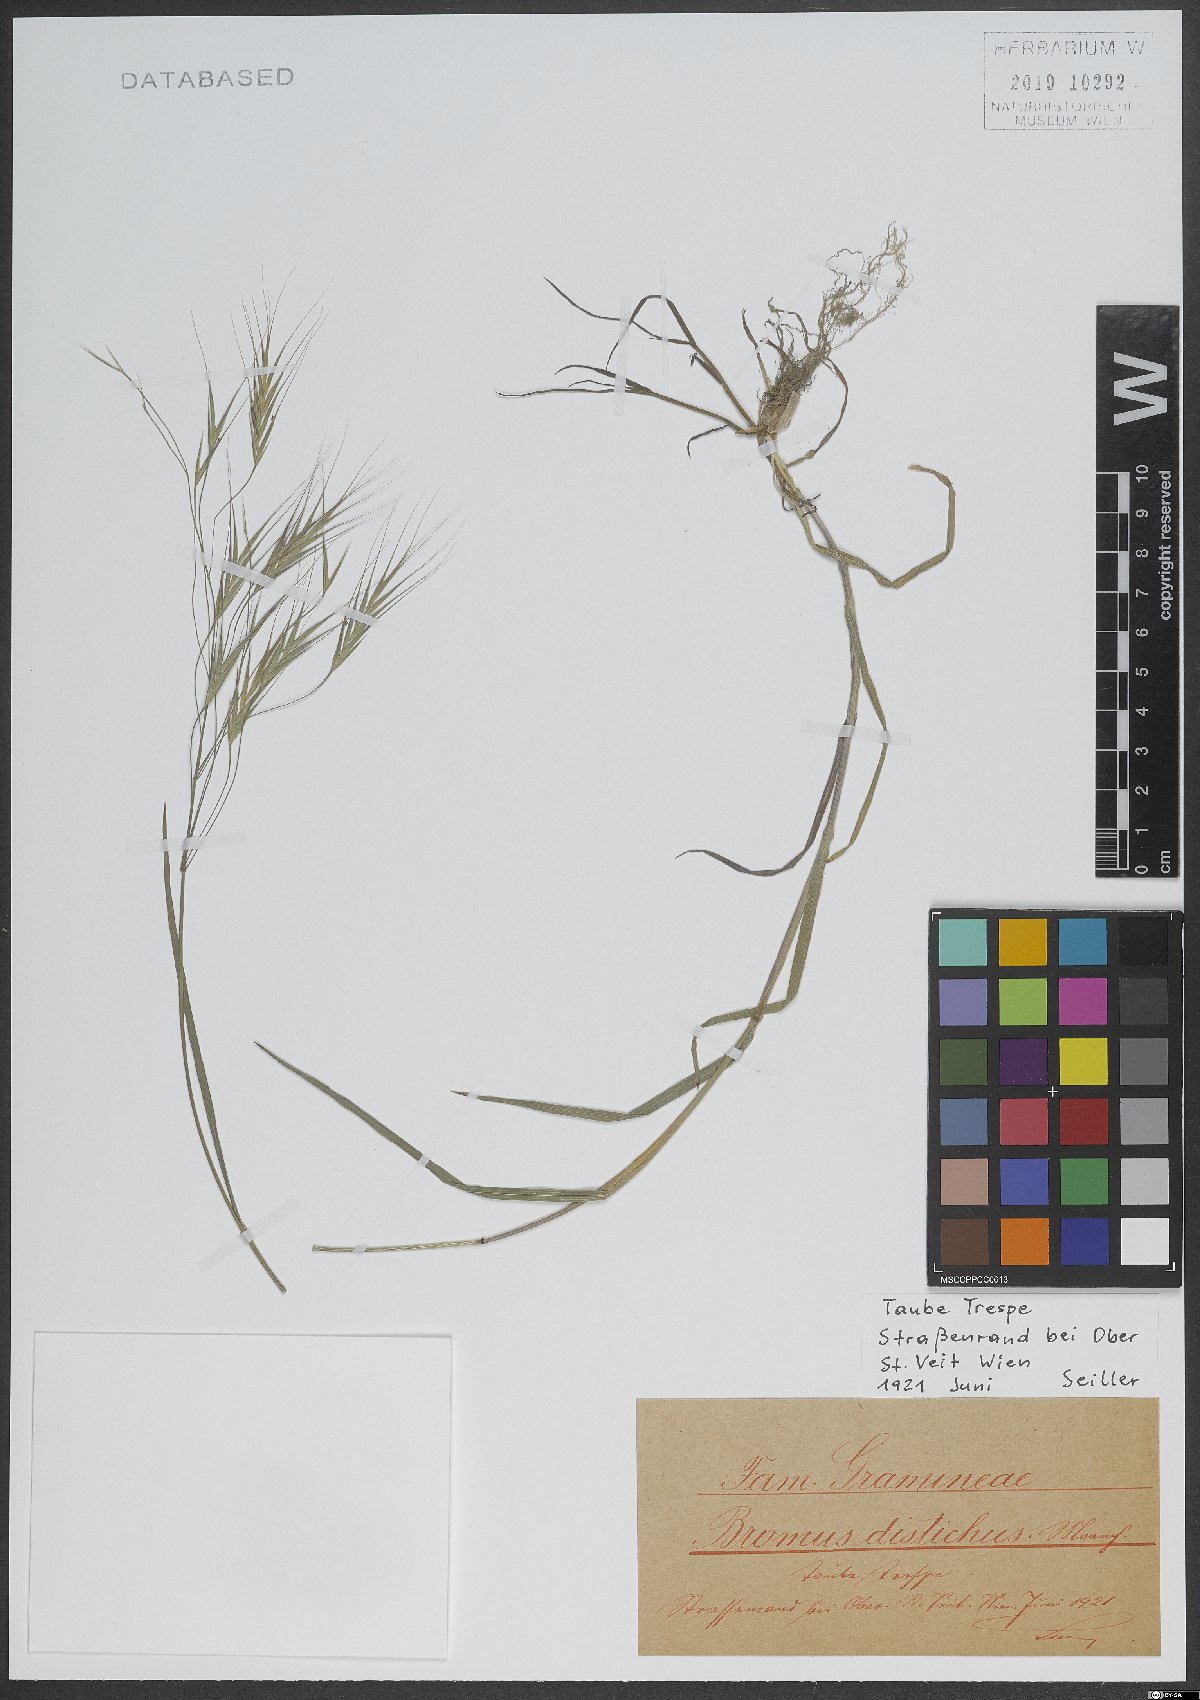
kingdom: Plantae
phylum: Tracheophyta
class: Liliopsida
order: Poales
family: Poaceae
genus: Bromus
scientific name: Bromus
